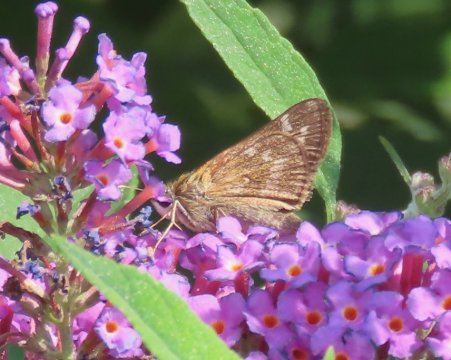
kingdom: Animalia
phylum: Arthropoda
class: Insecta
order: Lepidoptera
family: Hesperiidae
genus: Atalopedes
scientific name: Atalopedes campestris
